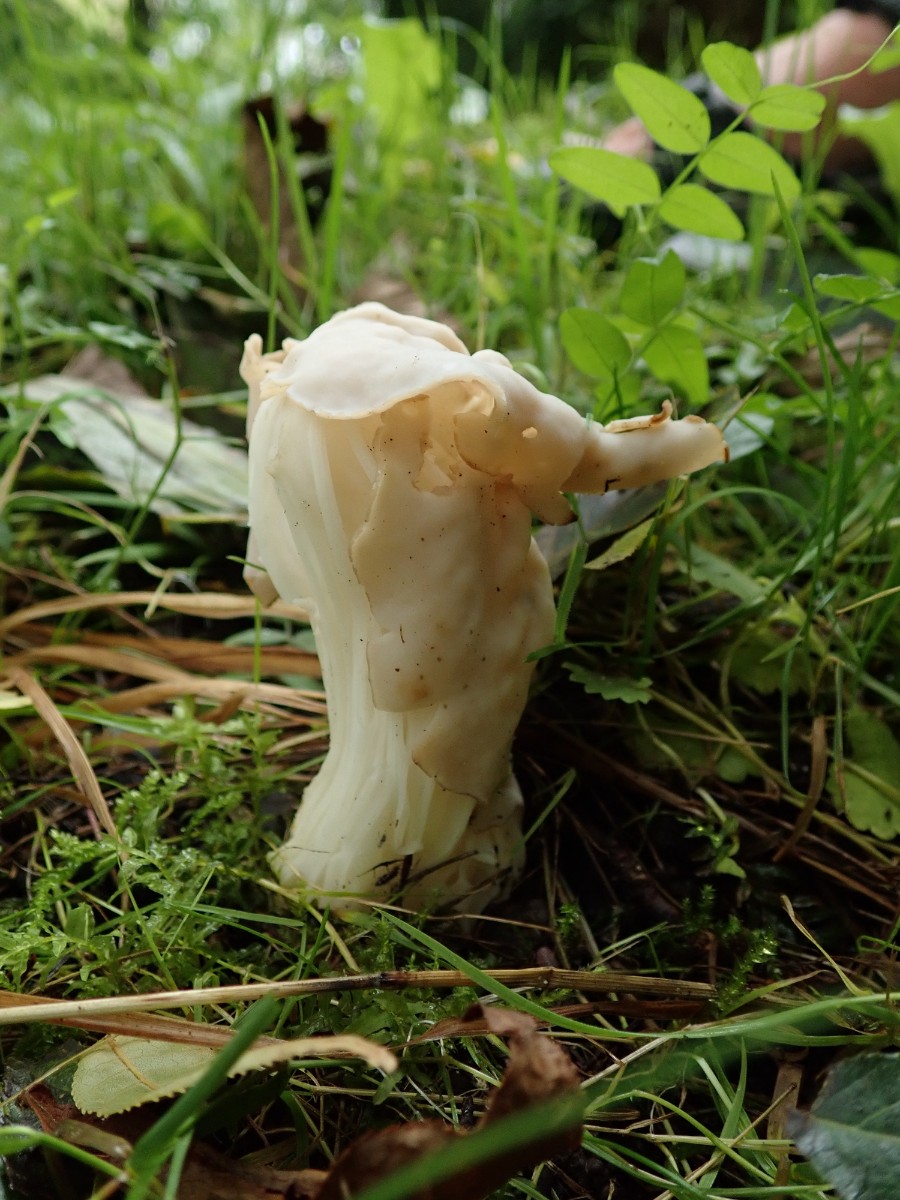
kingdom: Fungi
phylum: Ascomycota
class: Pezizomycetes
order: Pezizales
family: Helvellaceae
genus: Helvella
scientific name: Helvella crispa
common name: kruset foldhat
